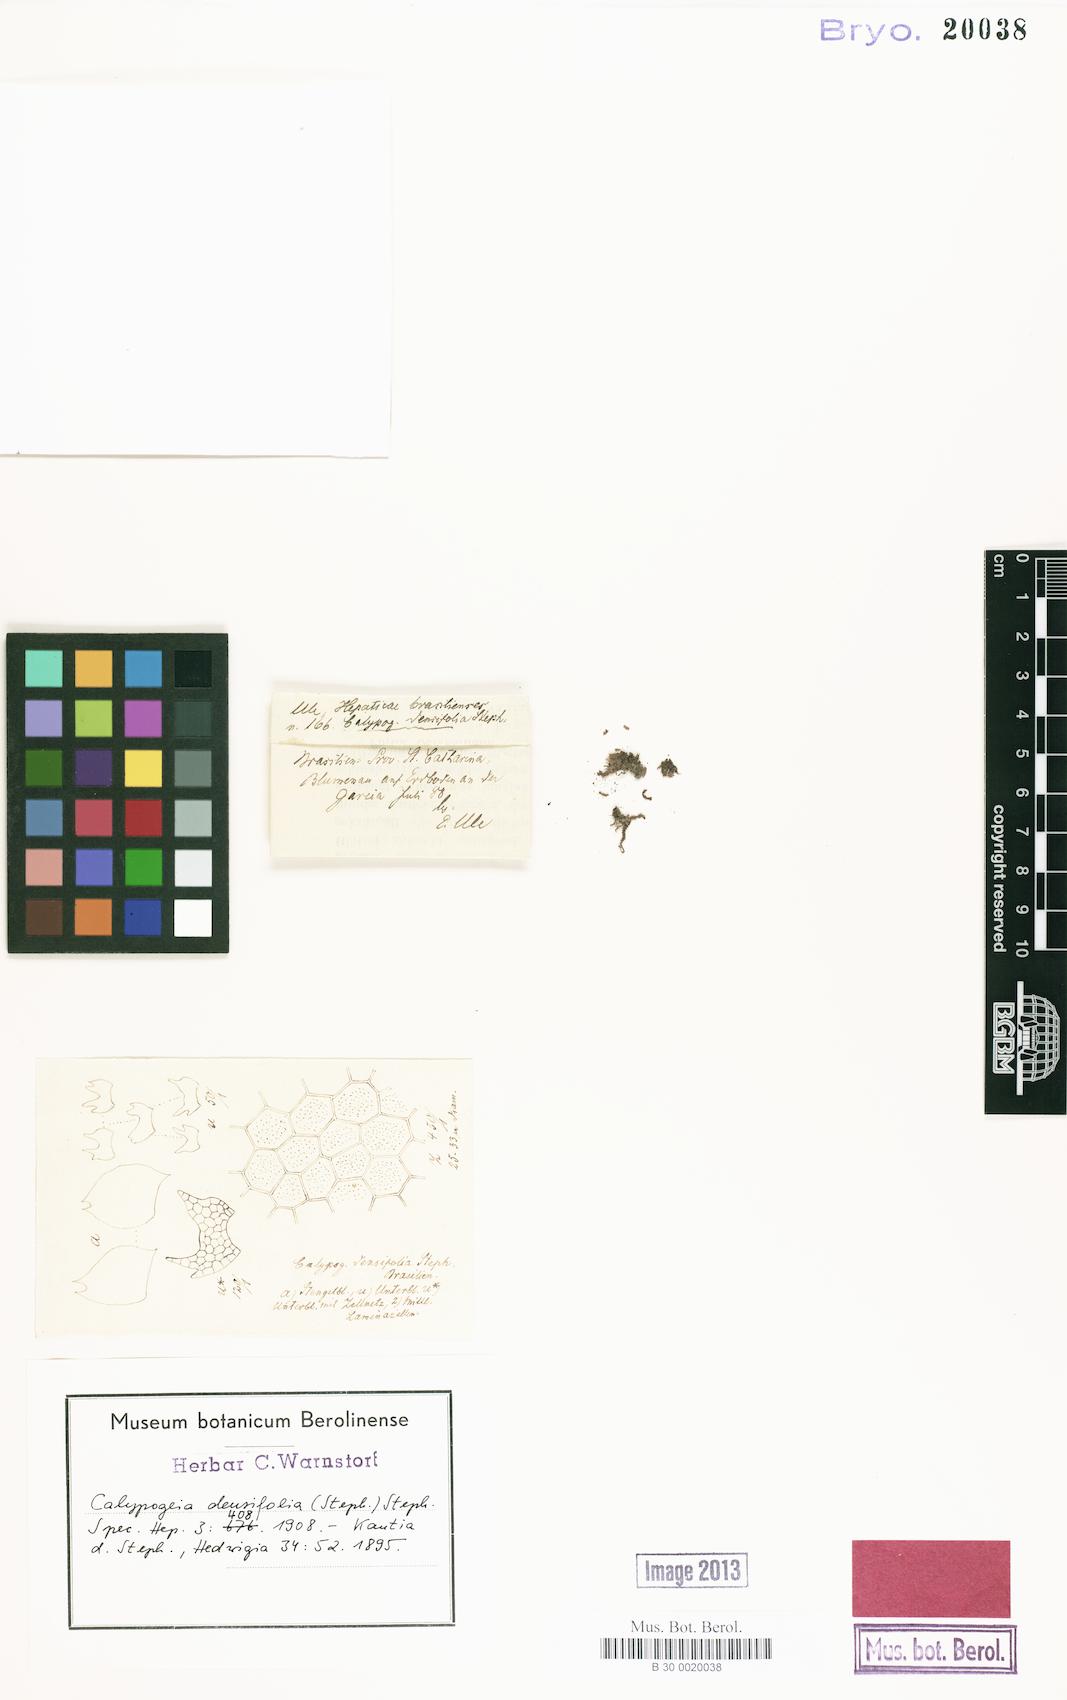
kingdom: Plantae
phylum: Marchantiophyta
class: Jungermanniopsida
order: Jungermanniales
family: Calypogeiaceae
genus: Calypogeia
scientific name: Calypogeia densifolia
